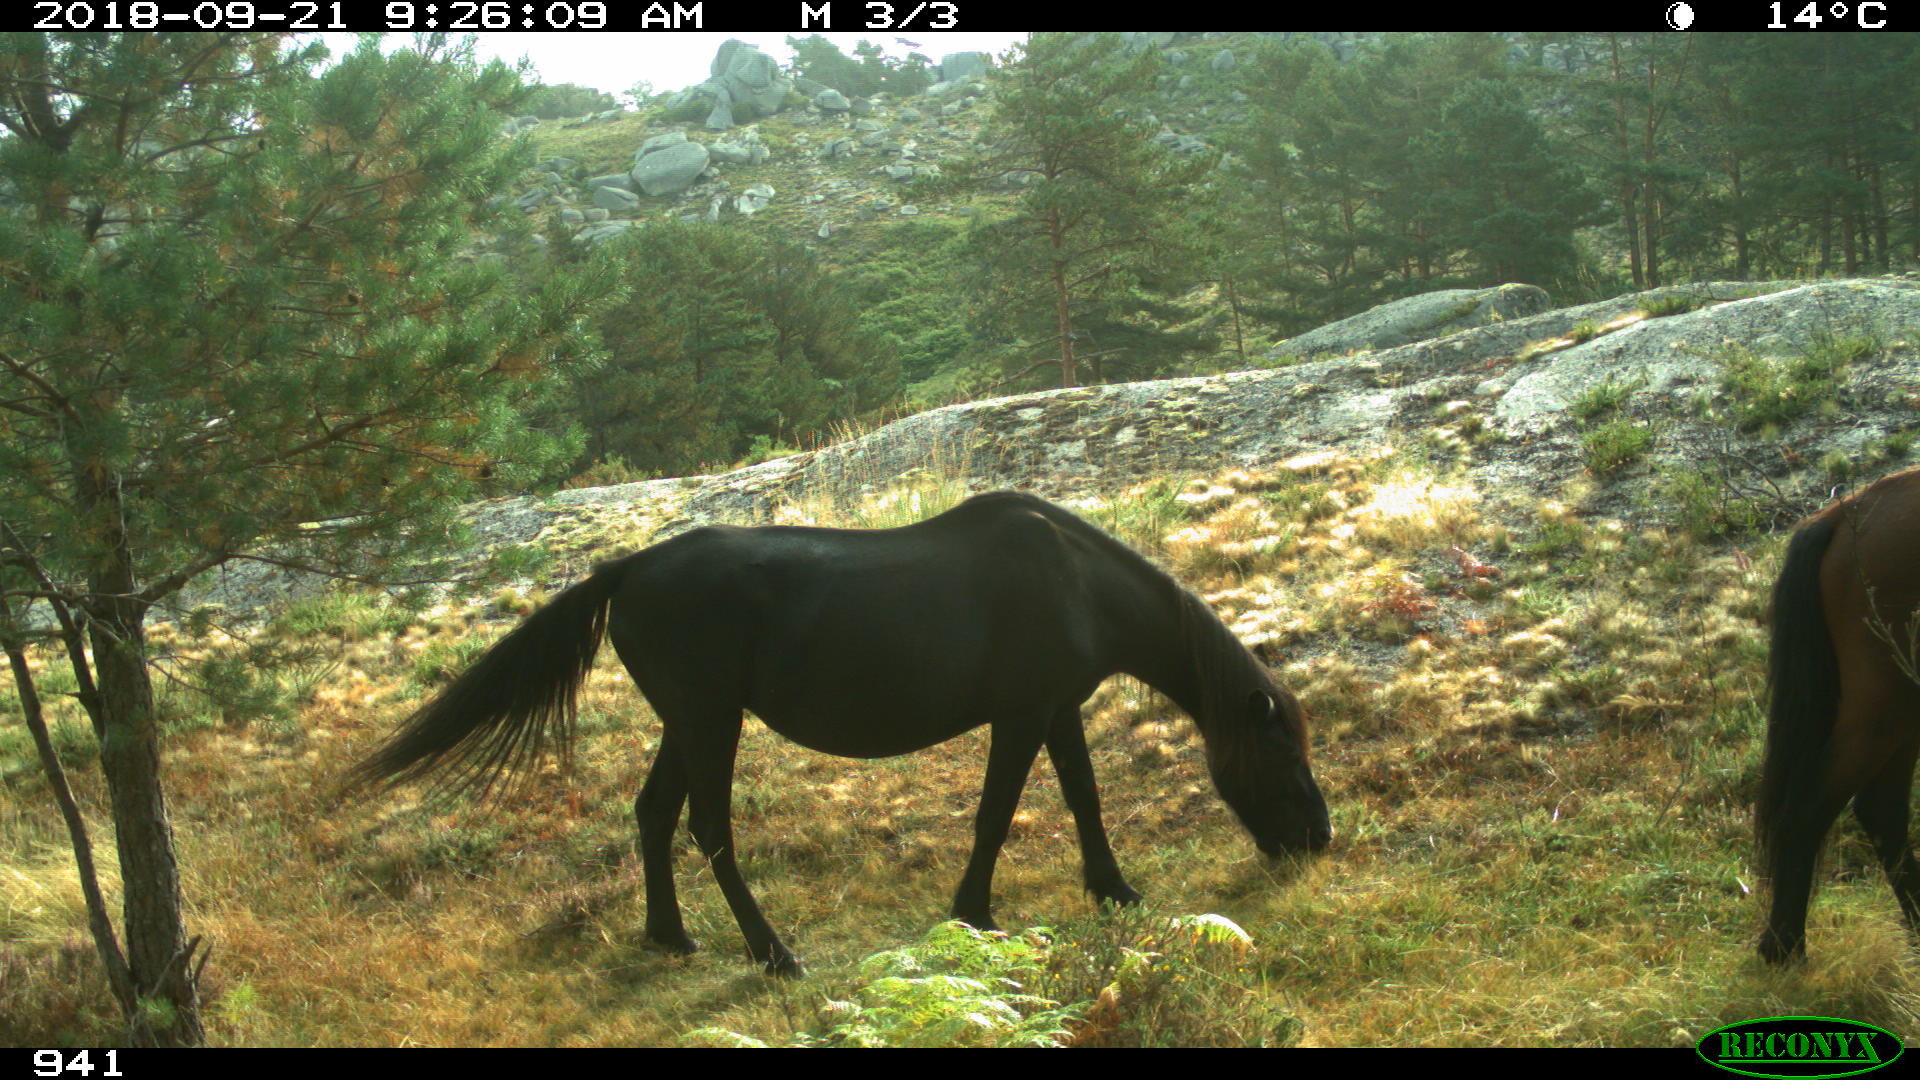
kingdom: Animalia
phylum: Chordata
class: Mammalia
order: Perissodactyla
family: Equidae
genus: Equus
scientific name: Equus caballus
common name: Horse
